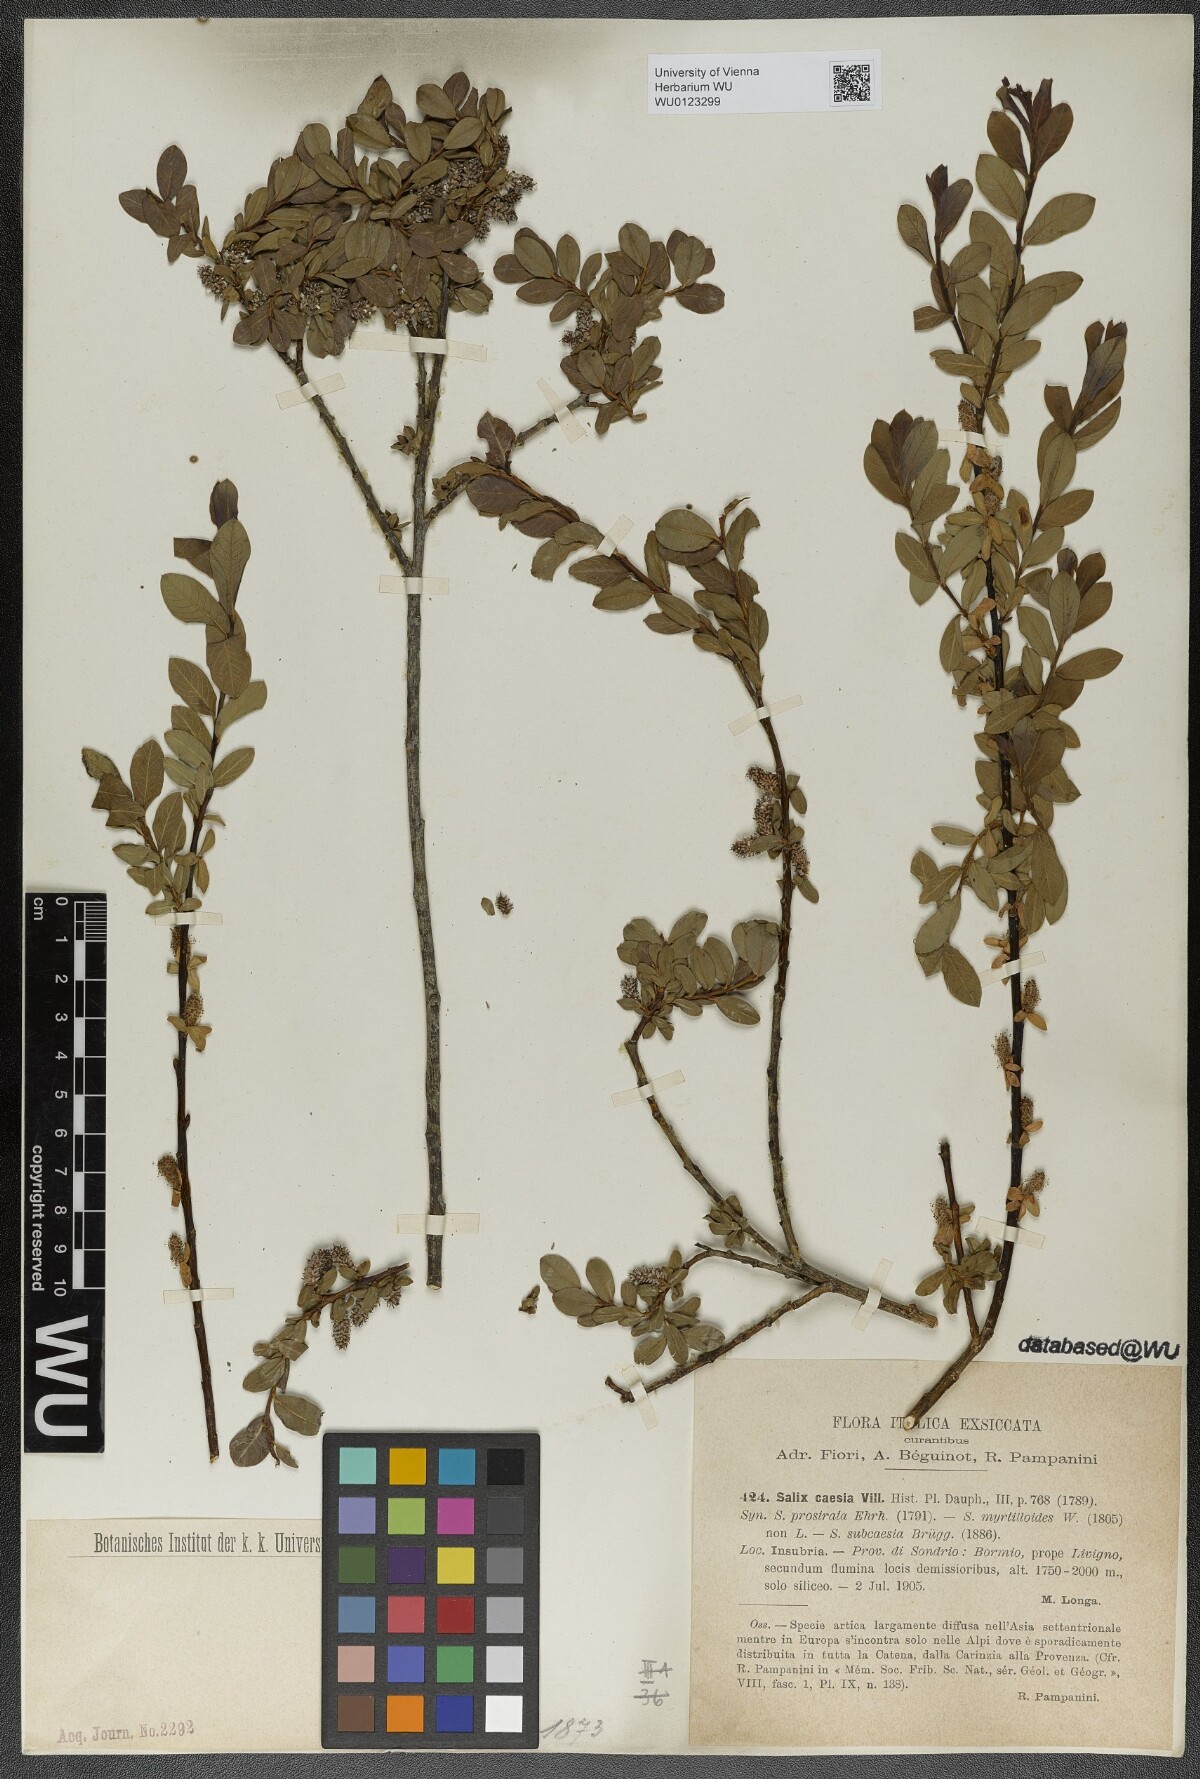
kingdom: Plantae
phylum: Tracheophyta
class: Magnoliopsida
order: Malpighiales
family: Salicaceae
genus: Salix
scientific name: Salix caesia
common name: Blue willow
